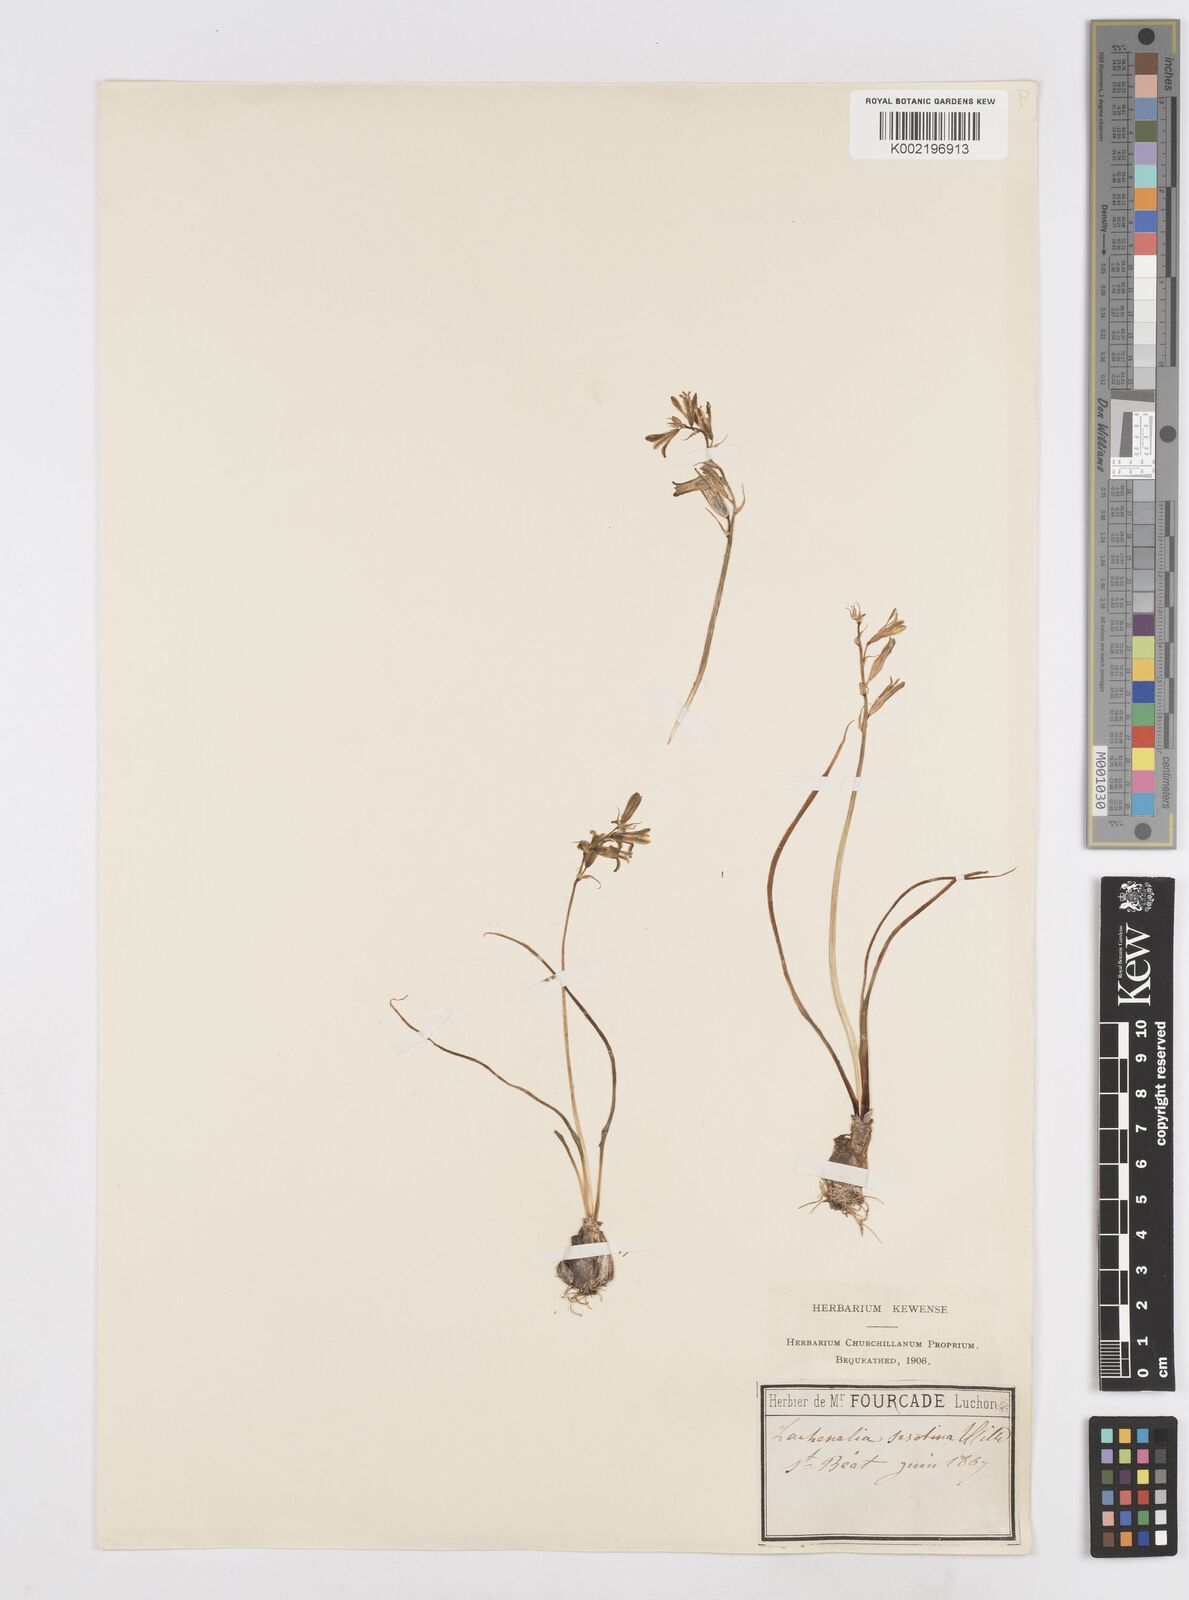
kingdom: Plantae
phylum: Tracheophyta
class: Liliopsida
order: Asparagales
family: Asparagaceae
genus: Dipcadi
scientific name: Dipcadi serotinum
